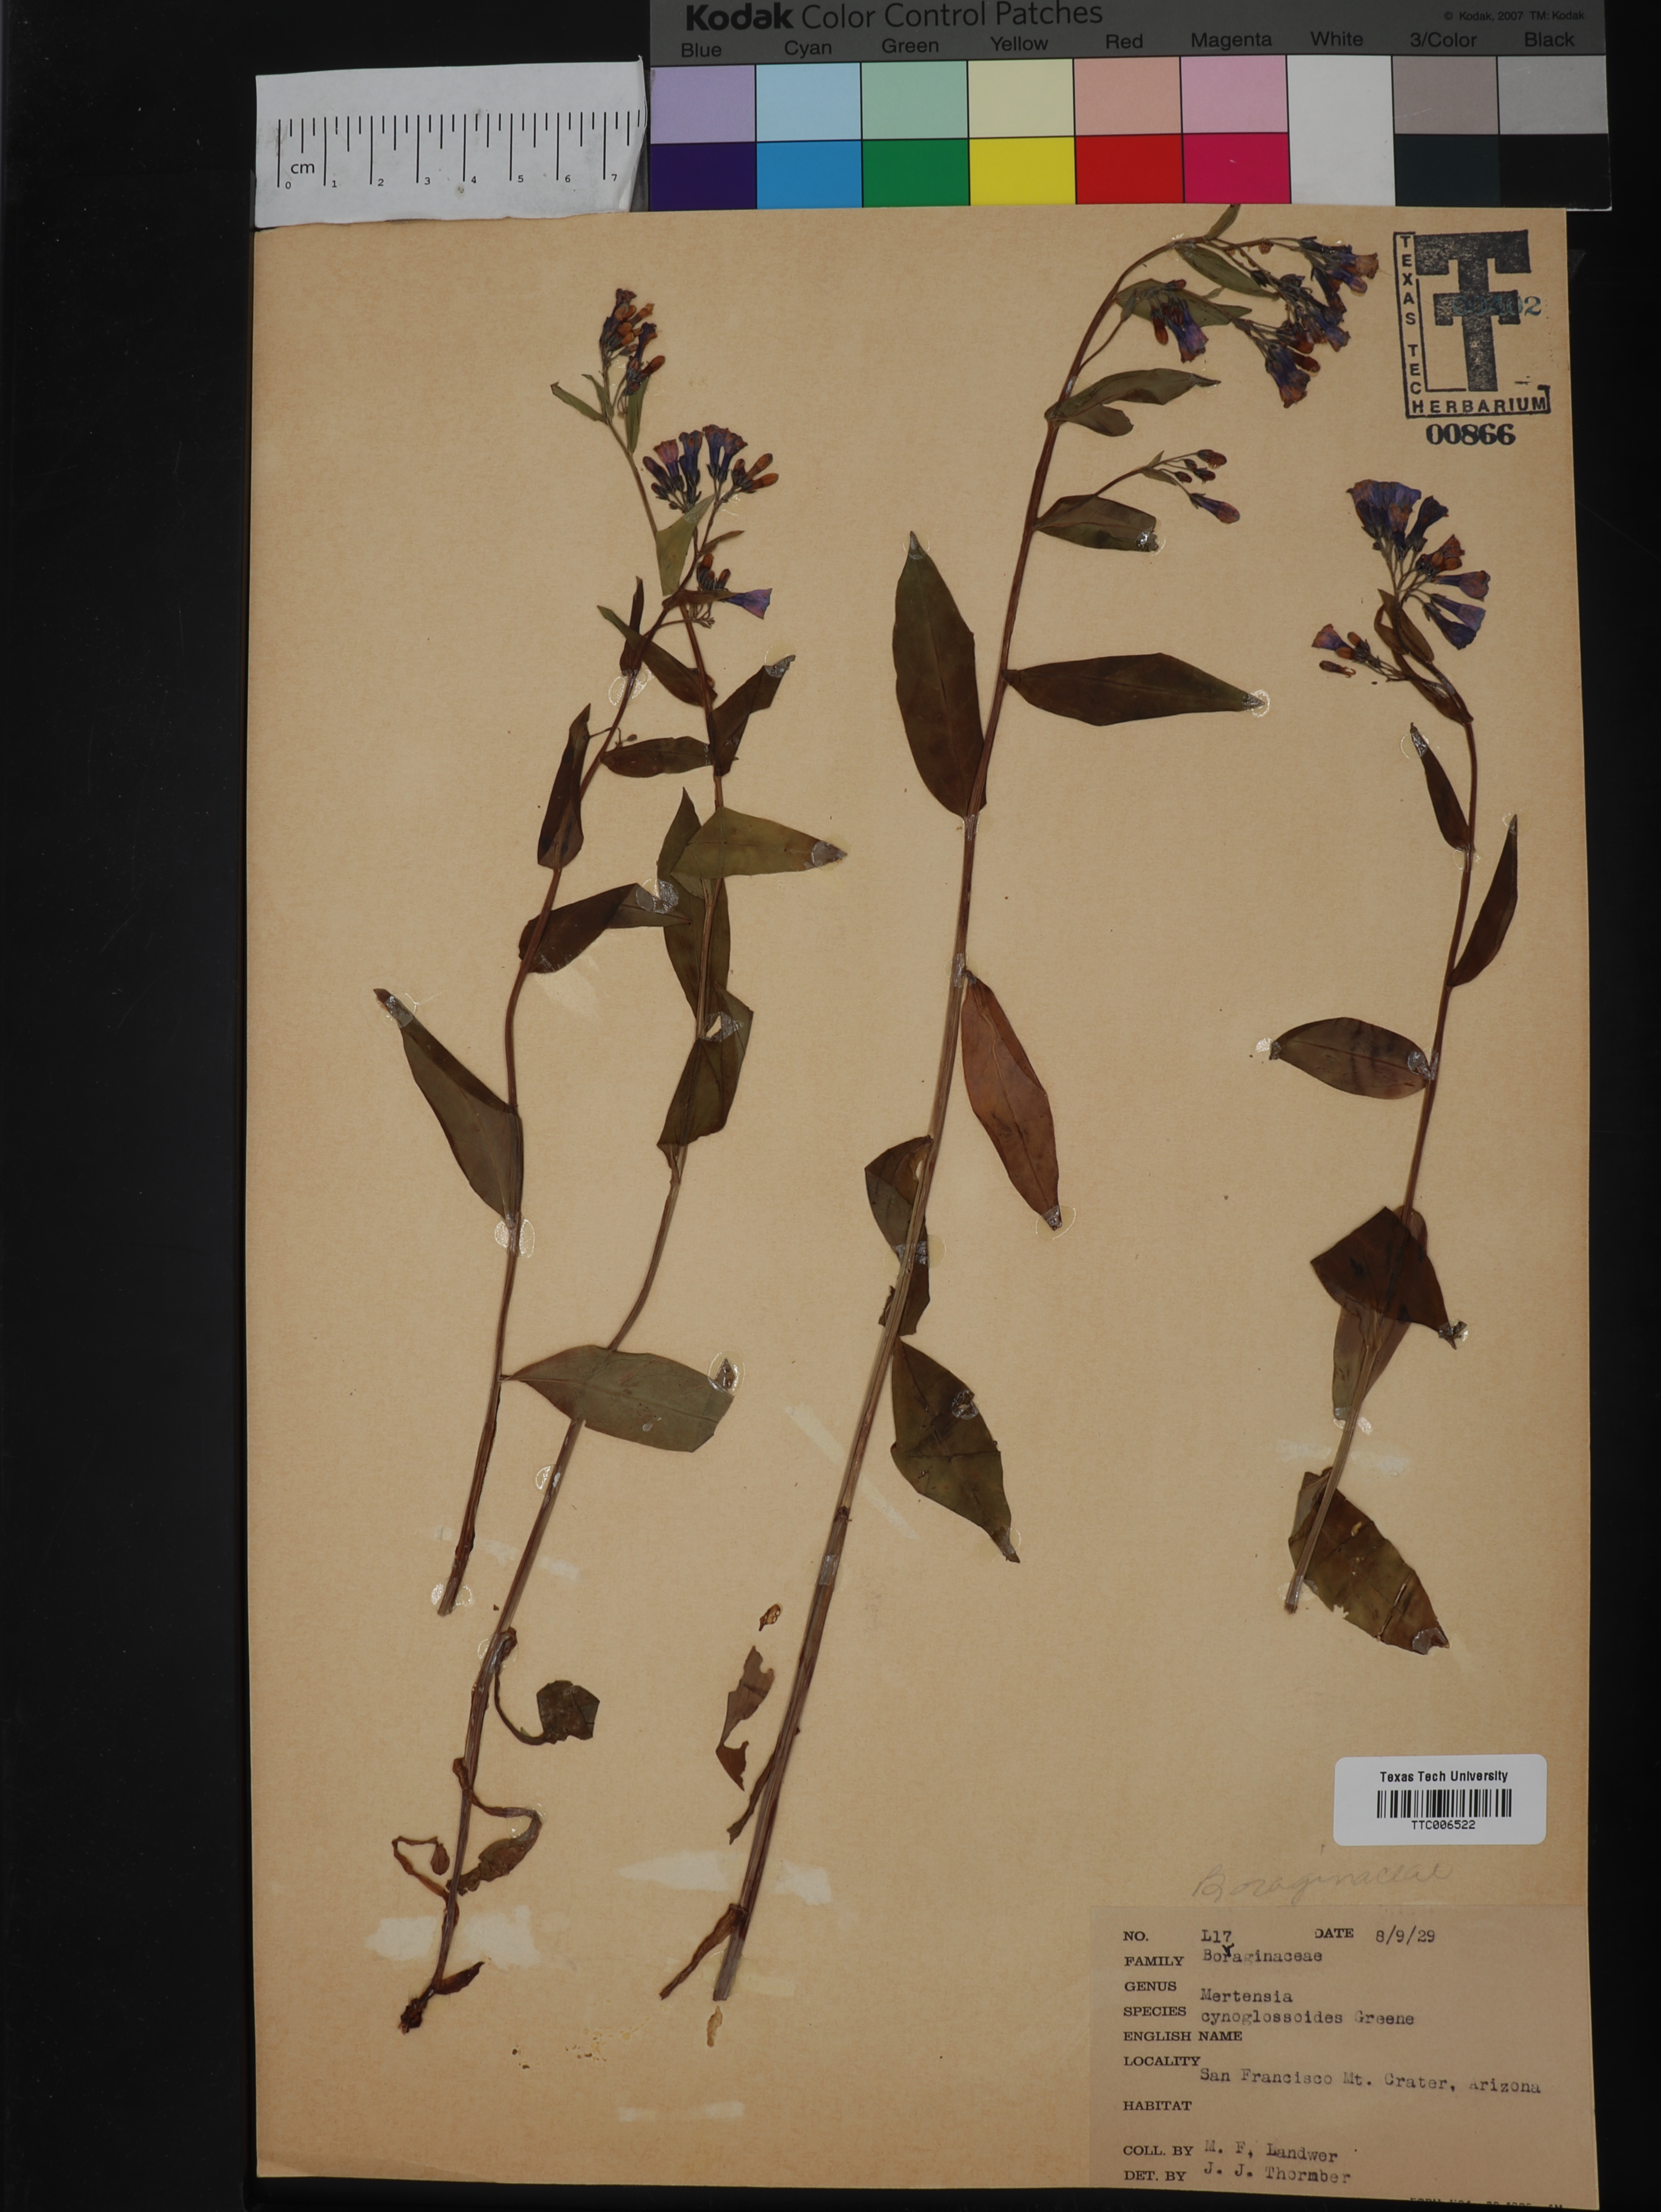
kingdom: Plantae
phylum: Tracheophyta
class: Magnoliopsida
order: Boraginales
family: Boraginaceae
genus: Mertensia
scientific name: Mertensia cynoglossoides
